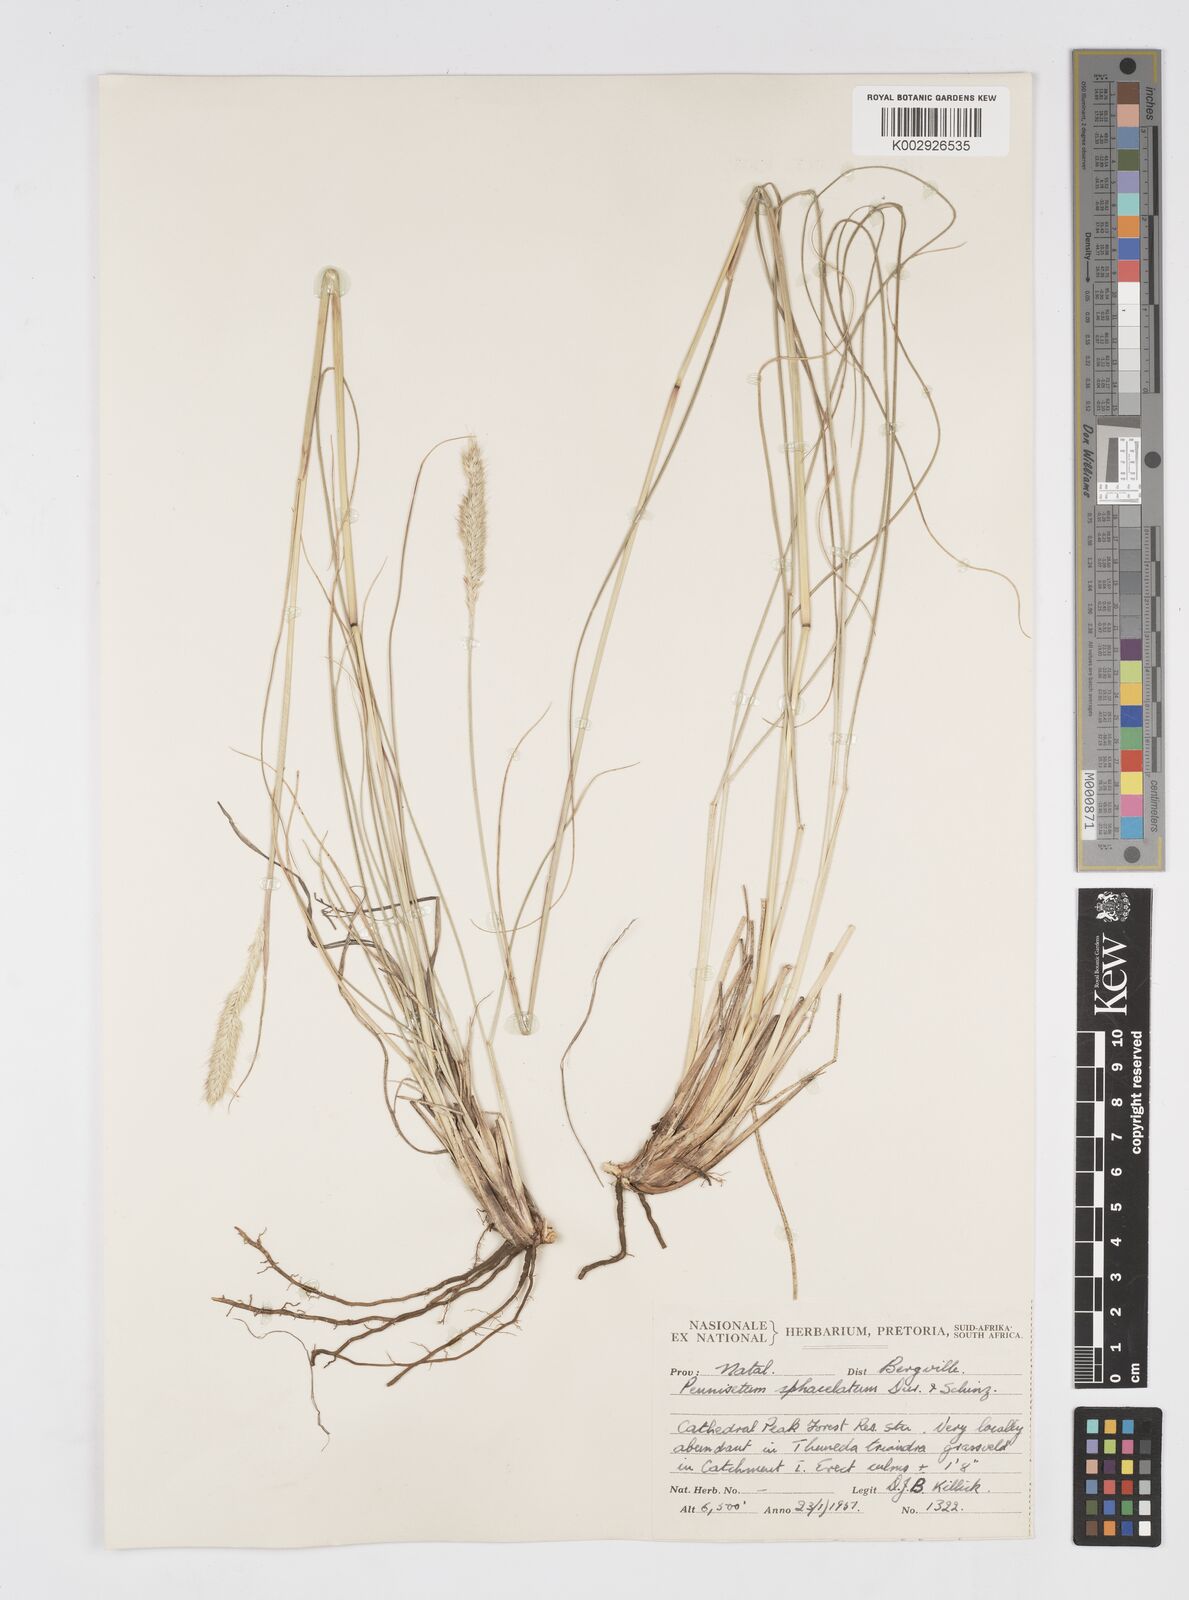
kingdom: Plantae
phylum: Tracheophyta
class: Liliopsida
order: Poales
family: Poaceae
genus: Cenchrus
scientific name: Cenchrus sphacelatus
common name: Bulgras
